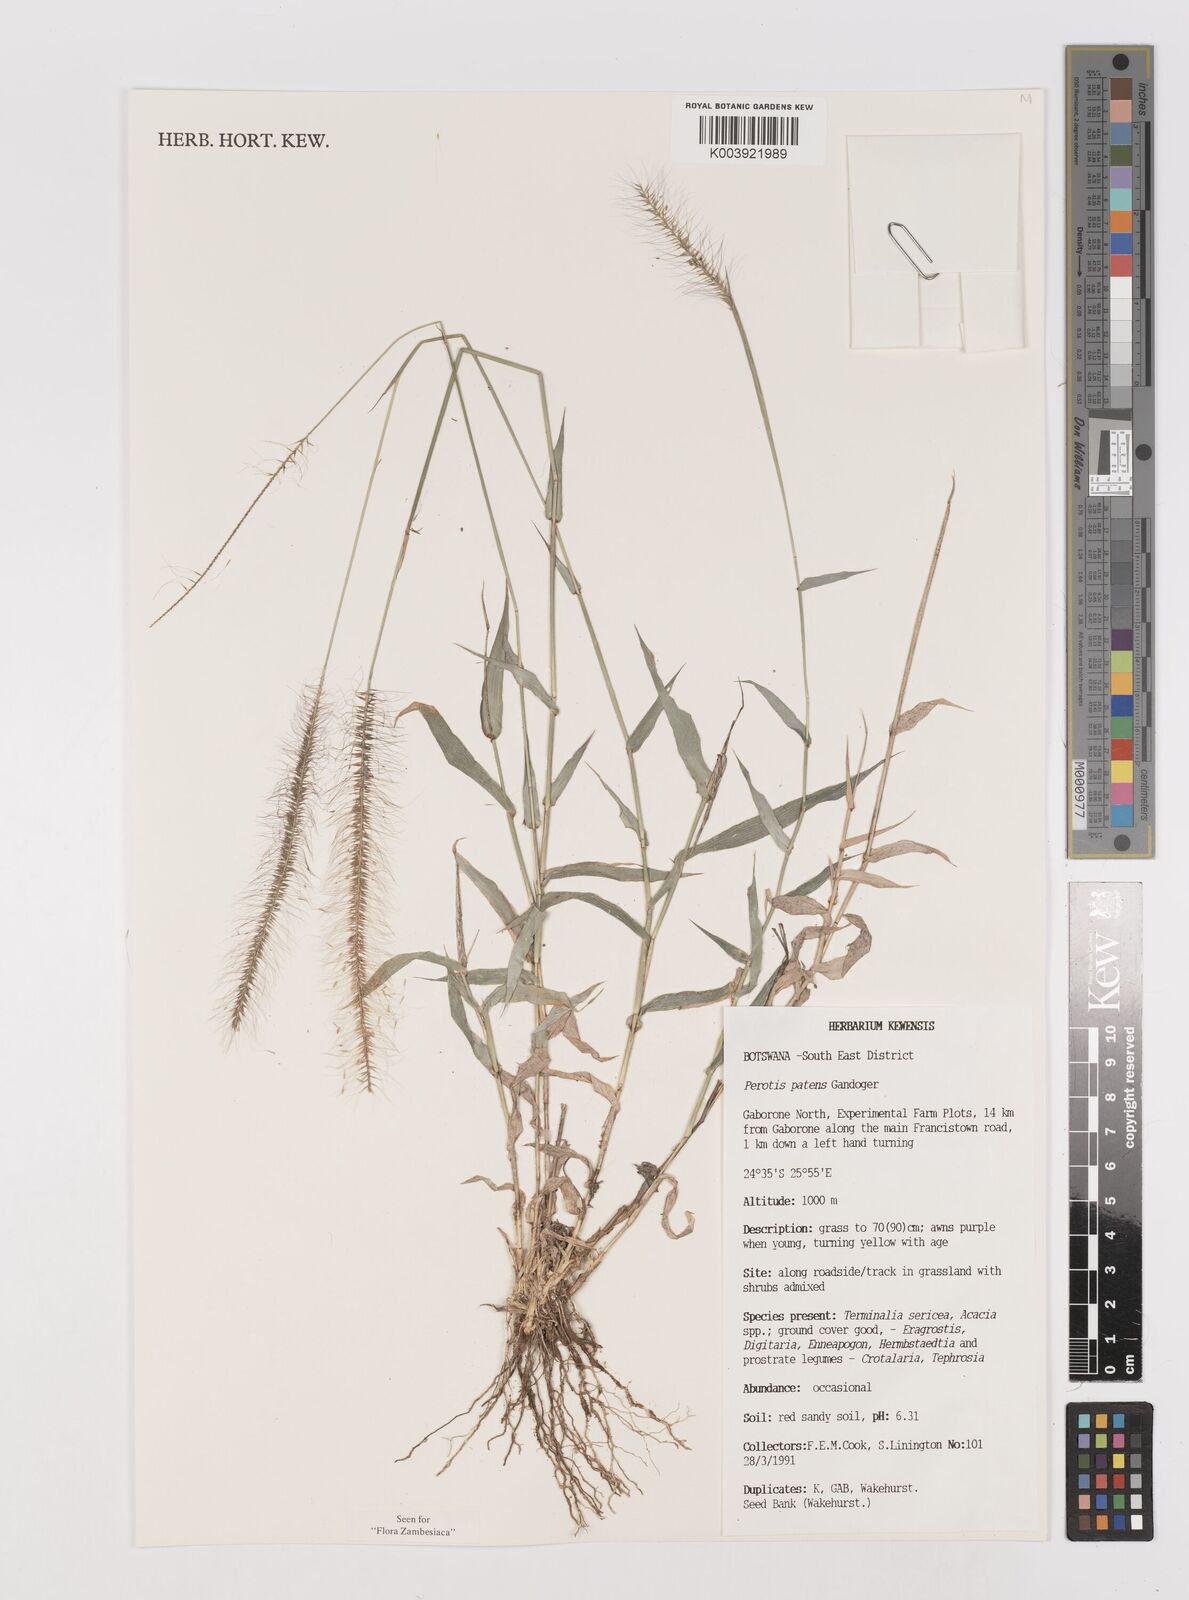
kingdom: Plantae
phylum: Tracheophyta
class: Liliopsida
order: Poales
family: Poaceae
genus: Perotis
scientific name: Perotis patens
